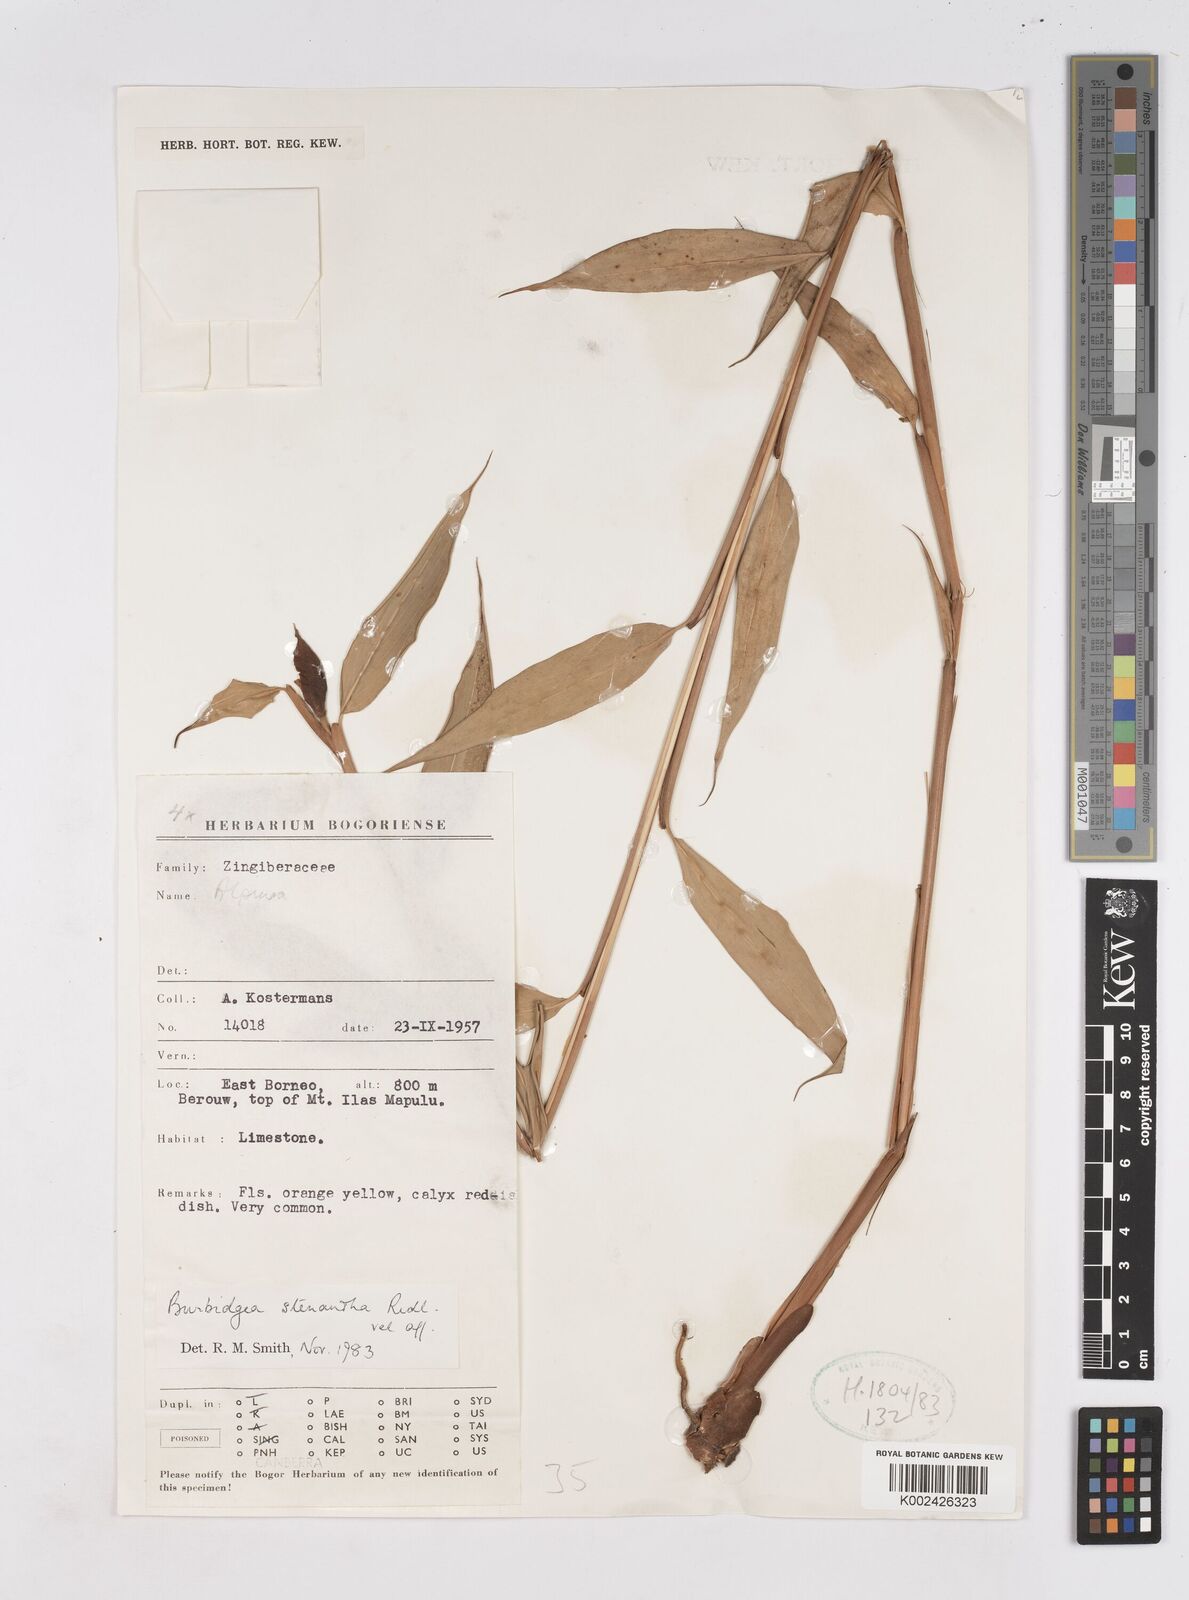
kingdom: Plantae
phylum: Tracheophyta
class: Liliopsida
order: Zingiberales
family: Zingiberaceae
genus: Burbidgea
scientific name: Burbidgea stenantha
